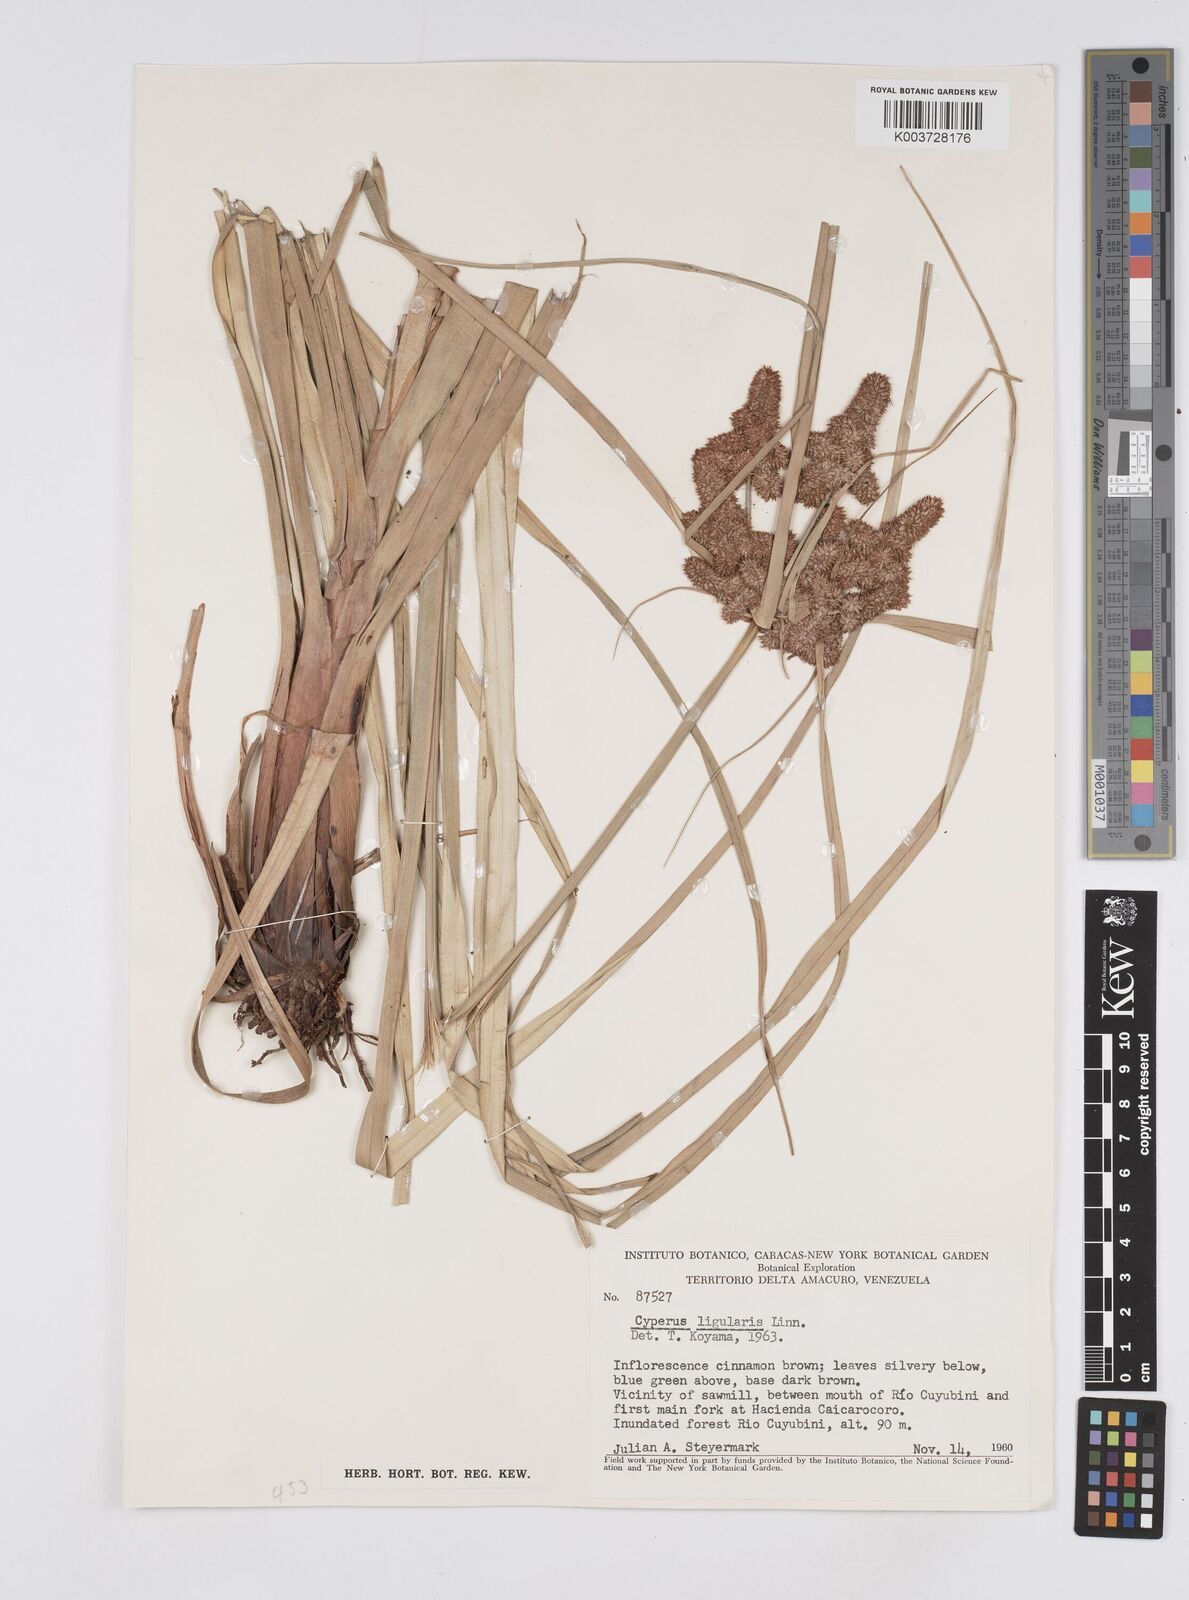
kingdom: Plantae
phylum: Tracheophyta
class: Liliopsida
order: Poales
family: Cyperaceae
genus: Cyperus
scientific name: Cyperus ligularis
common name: Swamp flat sedge
